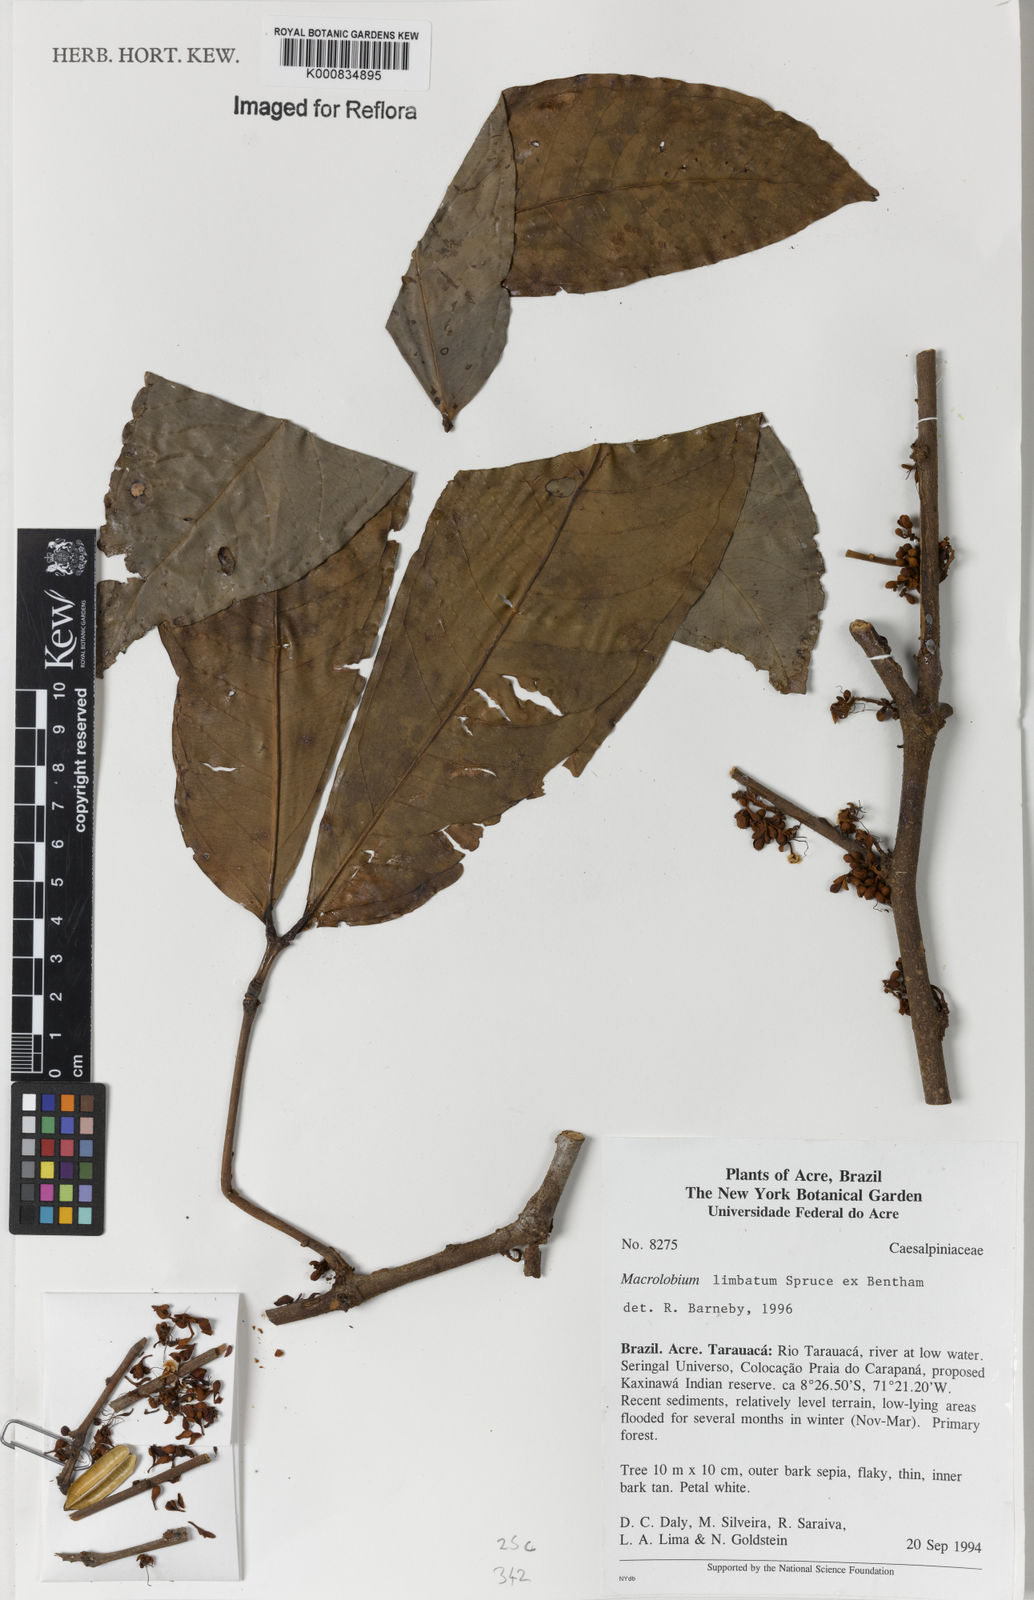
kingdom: Plantae
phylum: Tracheophyta
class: Magnoliopsida
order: Fabales
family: Fabaceae
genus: Macrolobium
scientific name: Macrolobium limbatum
